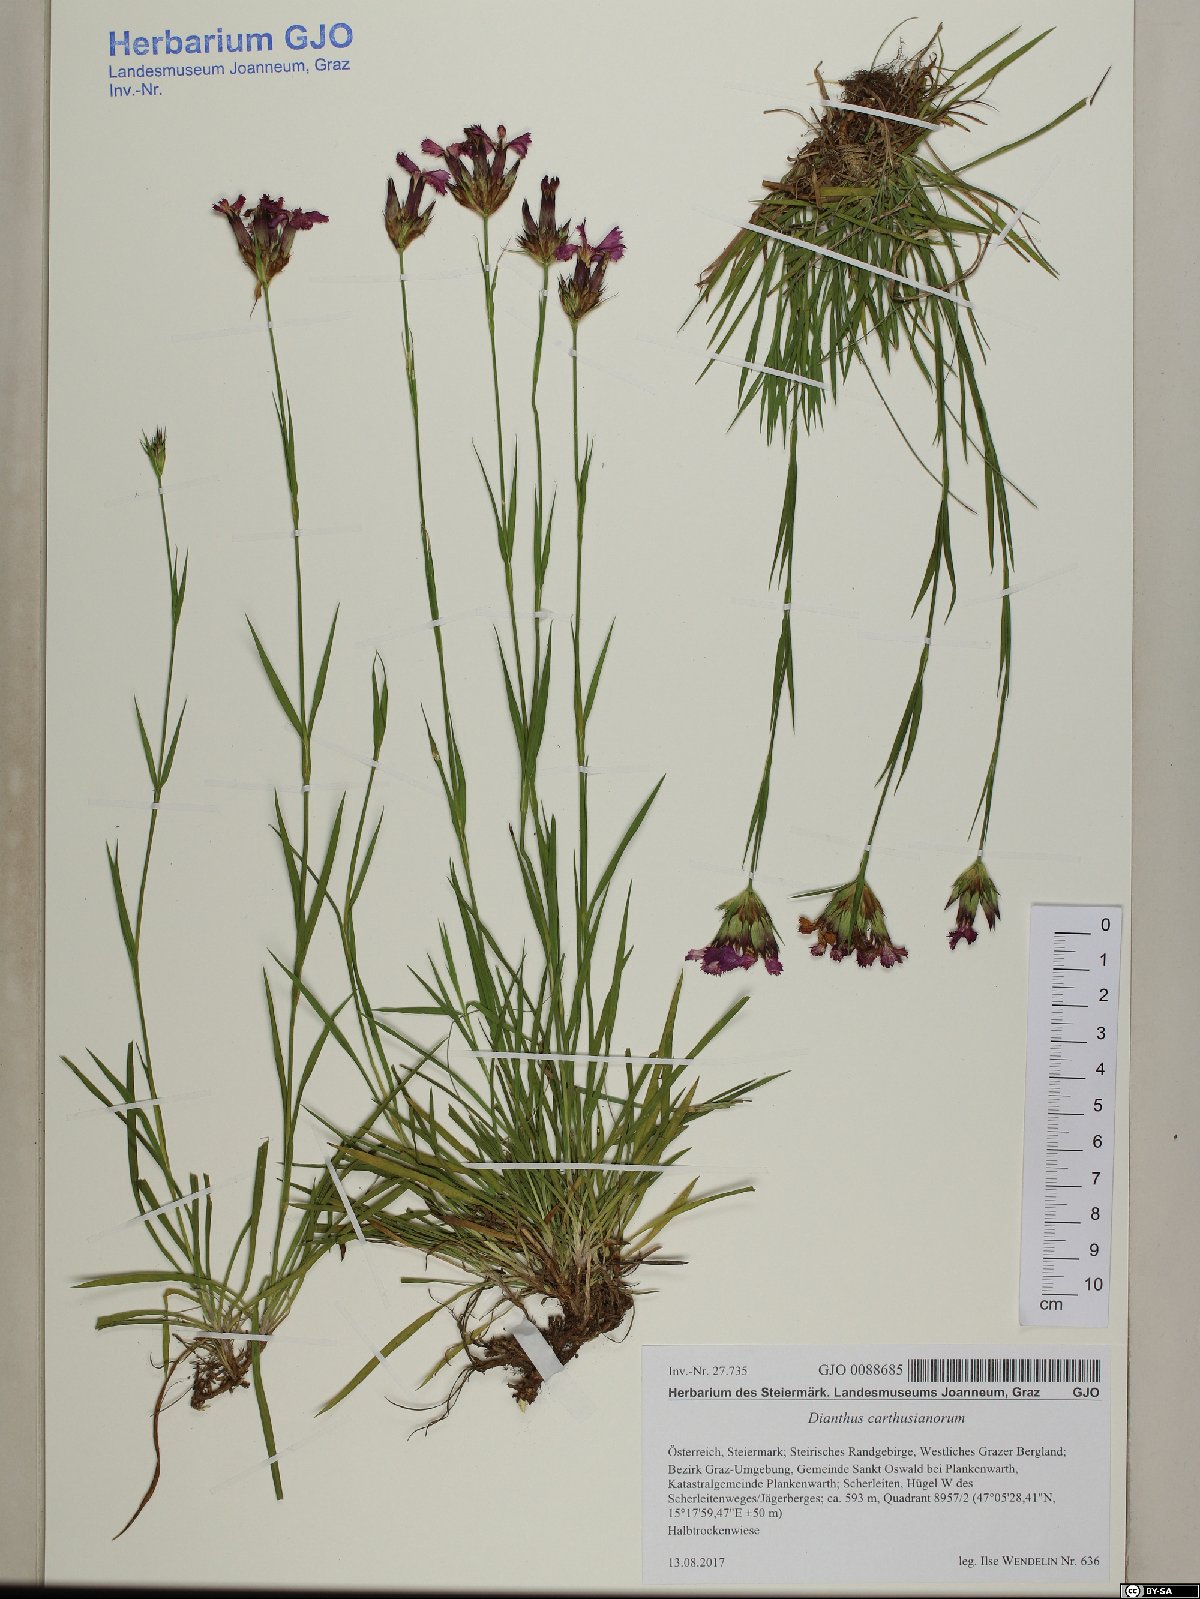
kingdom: Plantae
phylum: Tracheophyta
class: Magnoliopsida
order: Caryophyllales
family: Caryophyllaceae
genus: Dianthus
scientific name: Dianthus carthusianorum
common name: Carthusian pink
